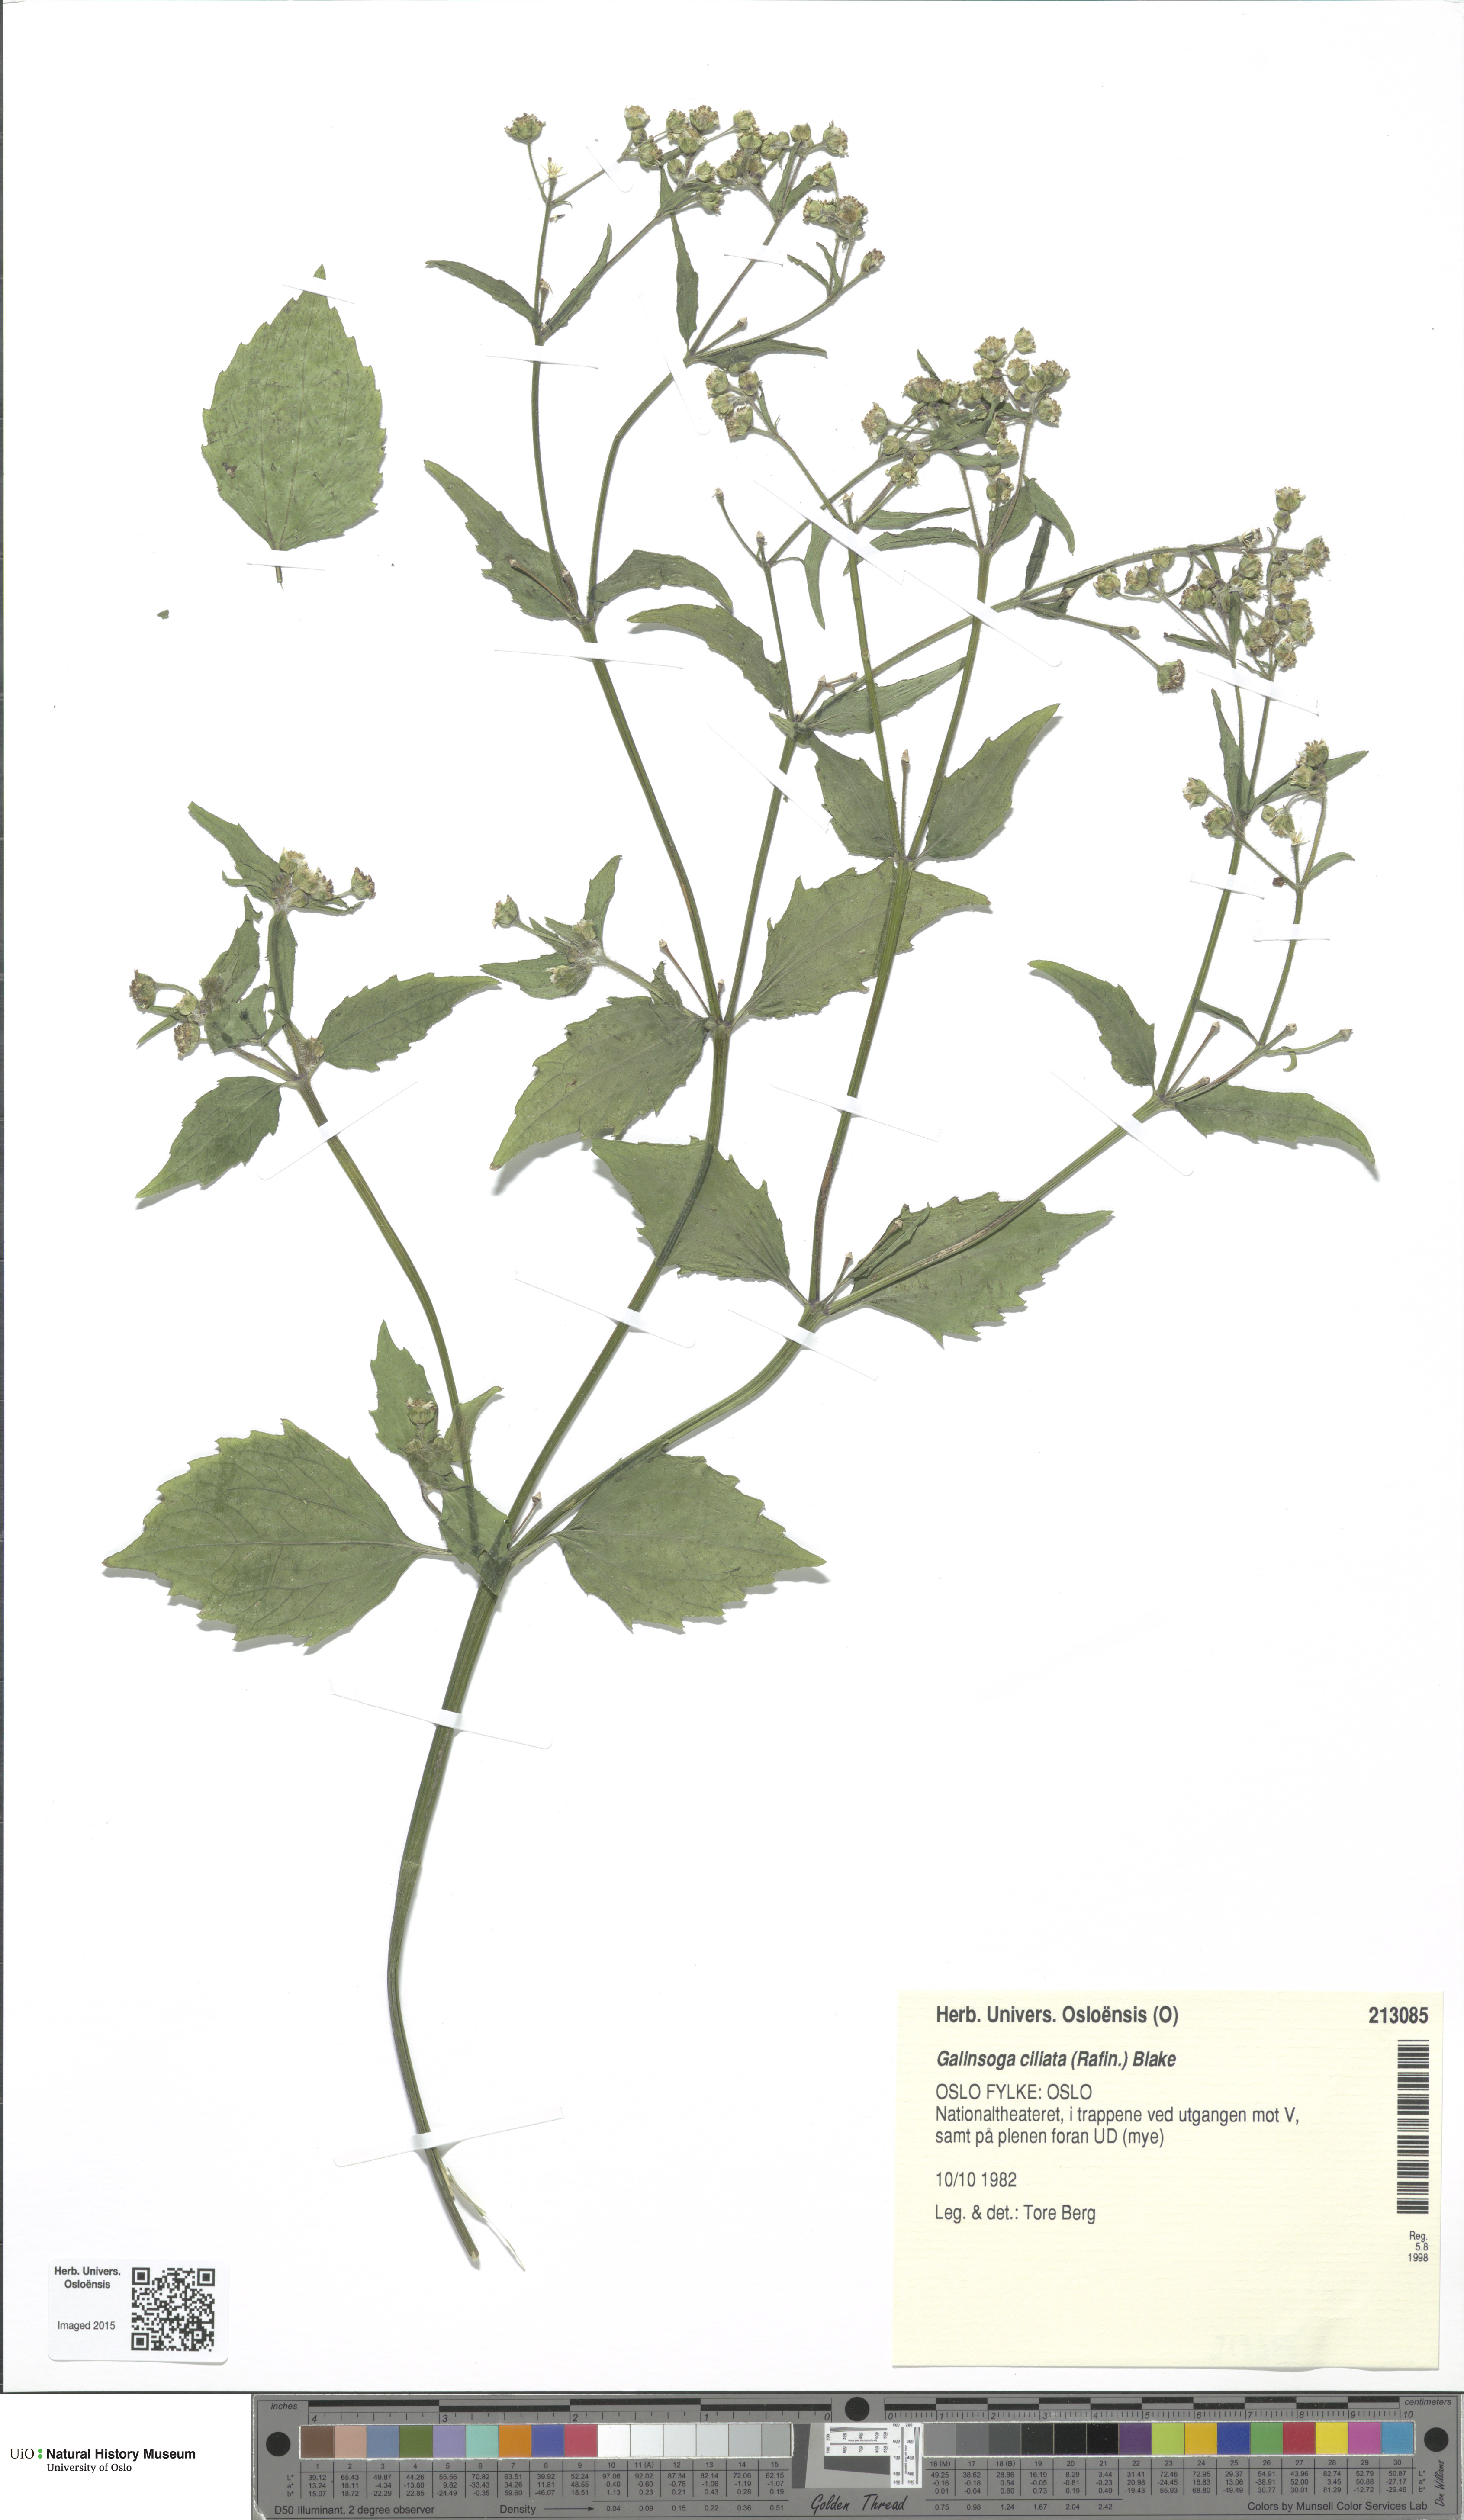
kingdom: Plantae
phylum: Tracheophyta
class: Liliopsida
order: Poales
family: Poaceae
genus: Poa
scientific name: Poa arctica
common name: Arctic bluegrass
